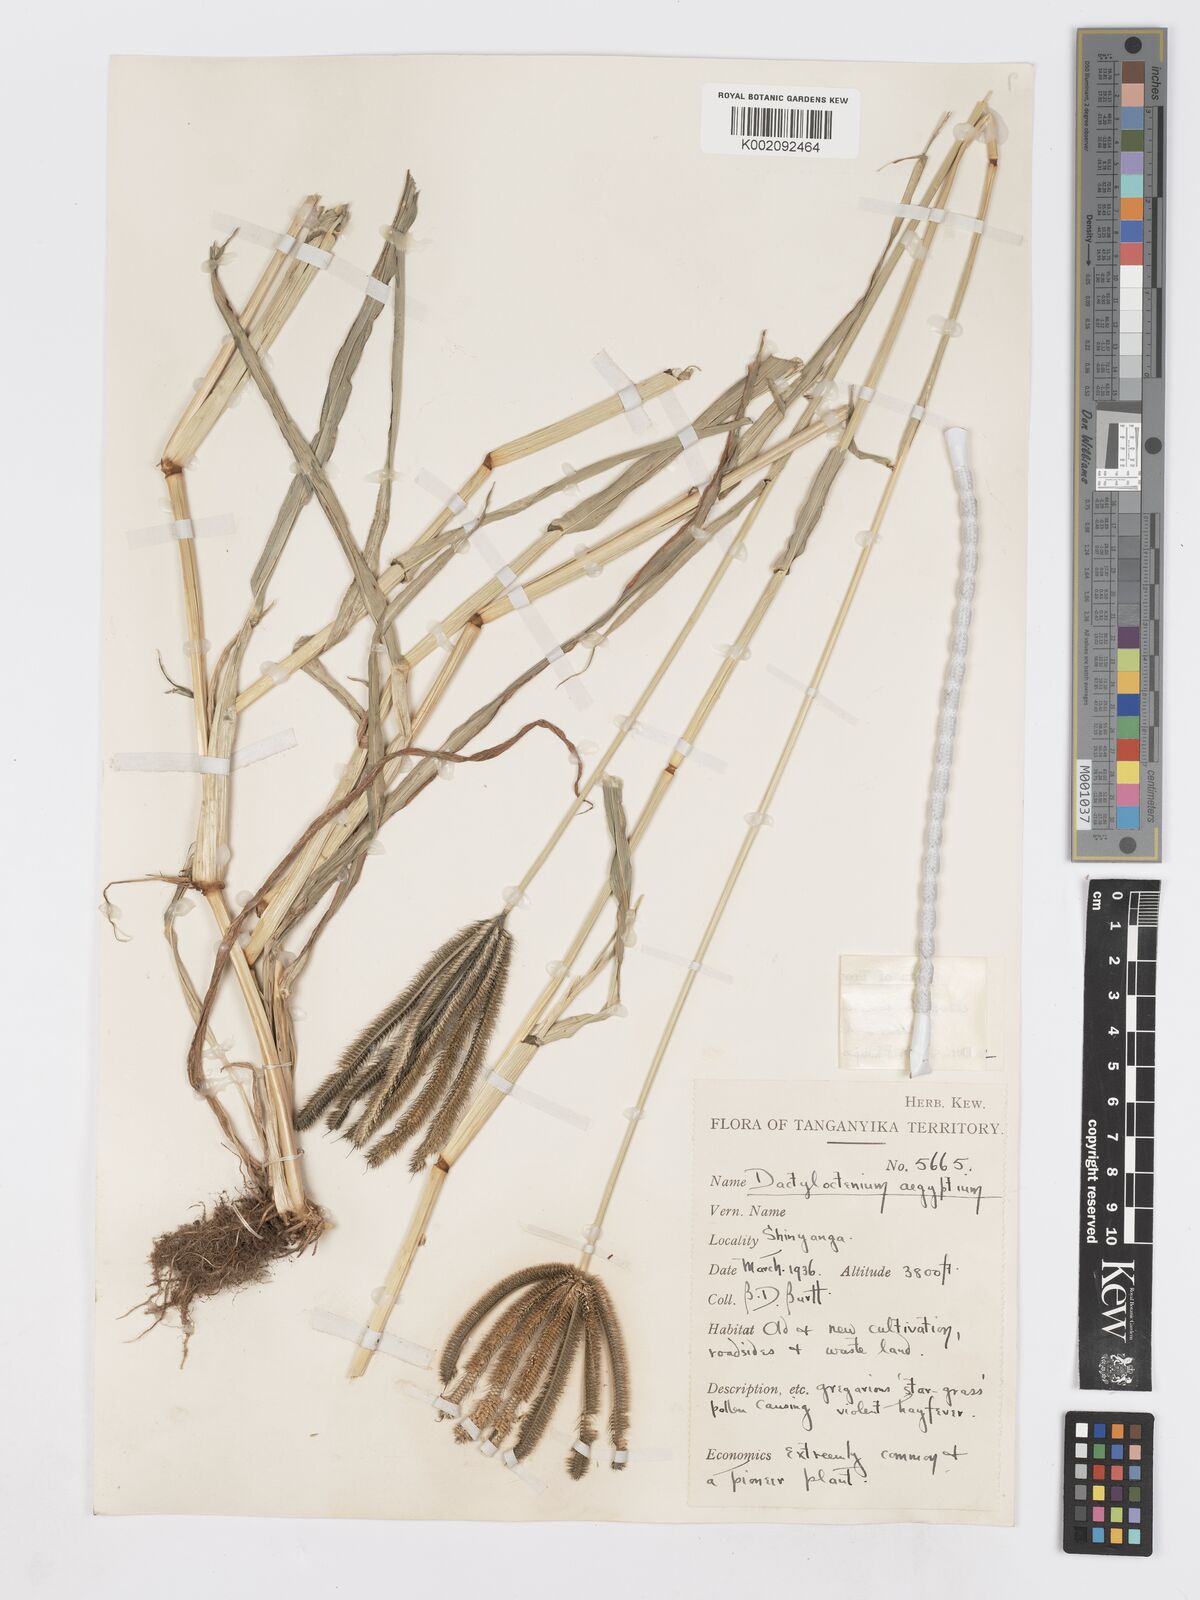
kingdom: Plantae
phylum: Tracheophyta
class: Liliopsida
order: Poales
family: Poaceae
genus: Dactyloctenium
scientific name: Dactyloctenium giganteum
